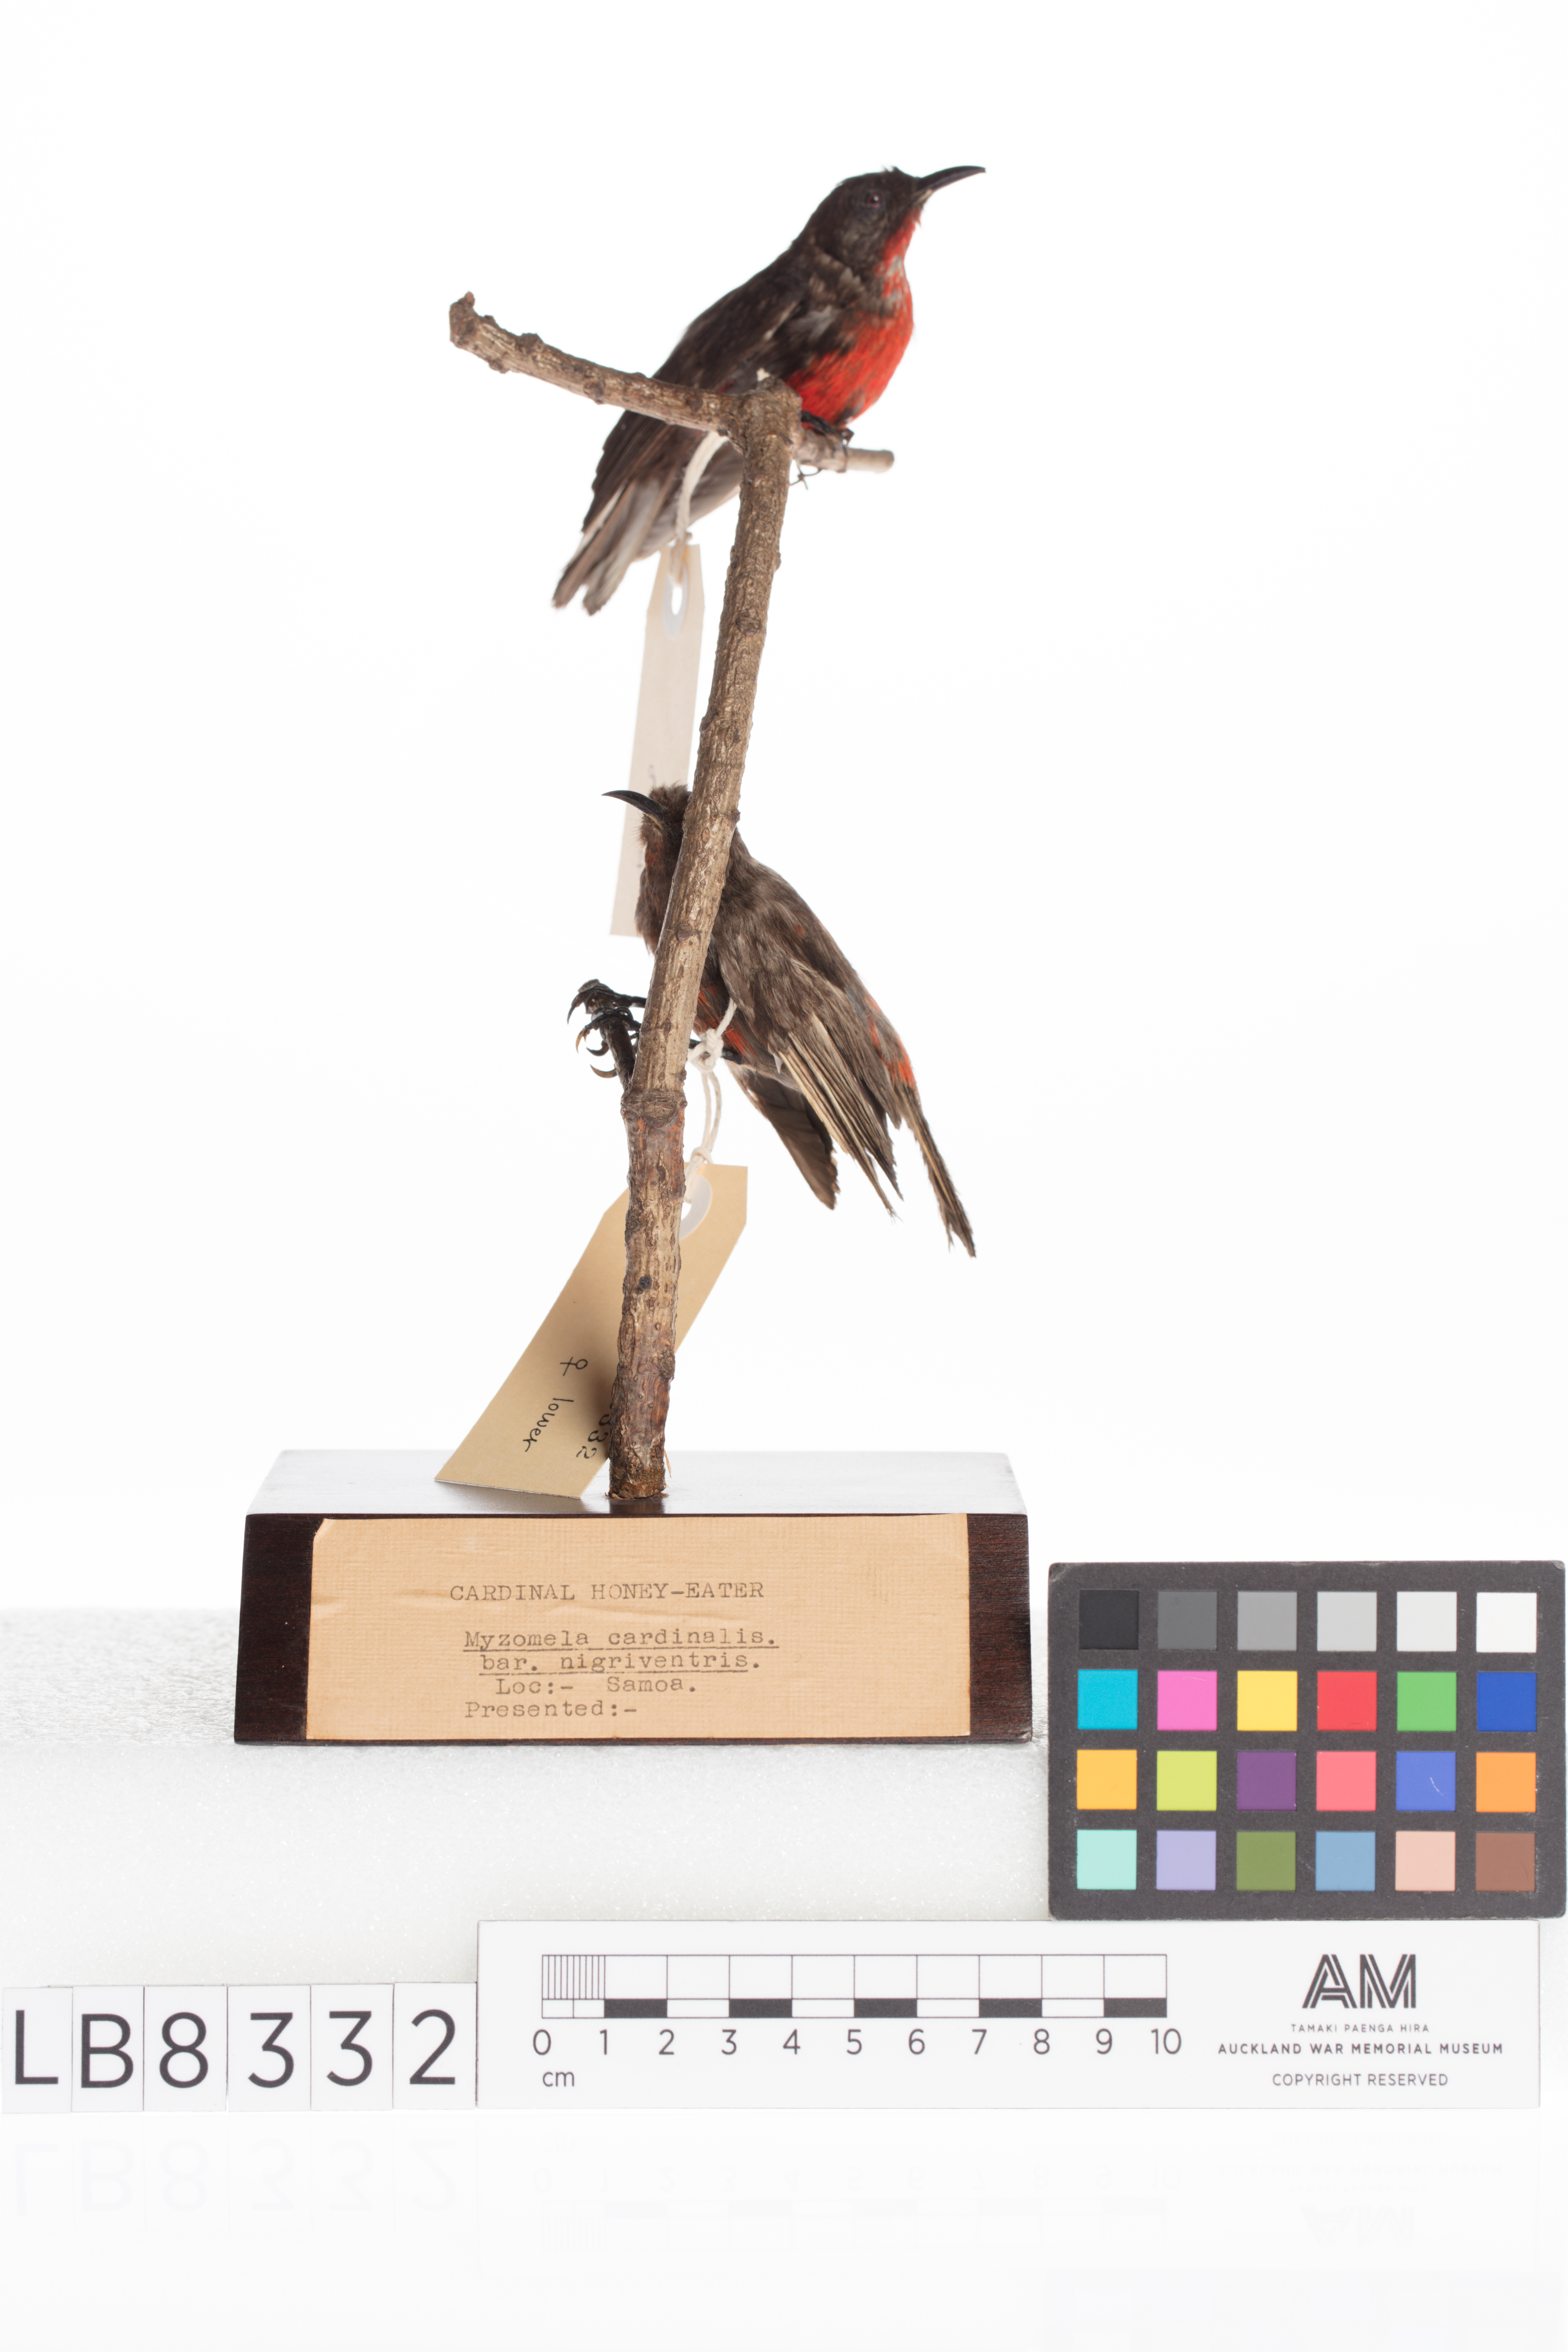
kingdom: Animalia
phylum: Chordata
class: Aves
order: Passeriformes
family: Meliphagidae
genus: Myzomela
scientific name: Myzomela cardinalis
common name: Cardinal myzomela
